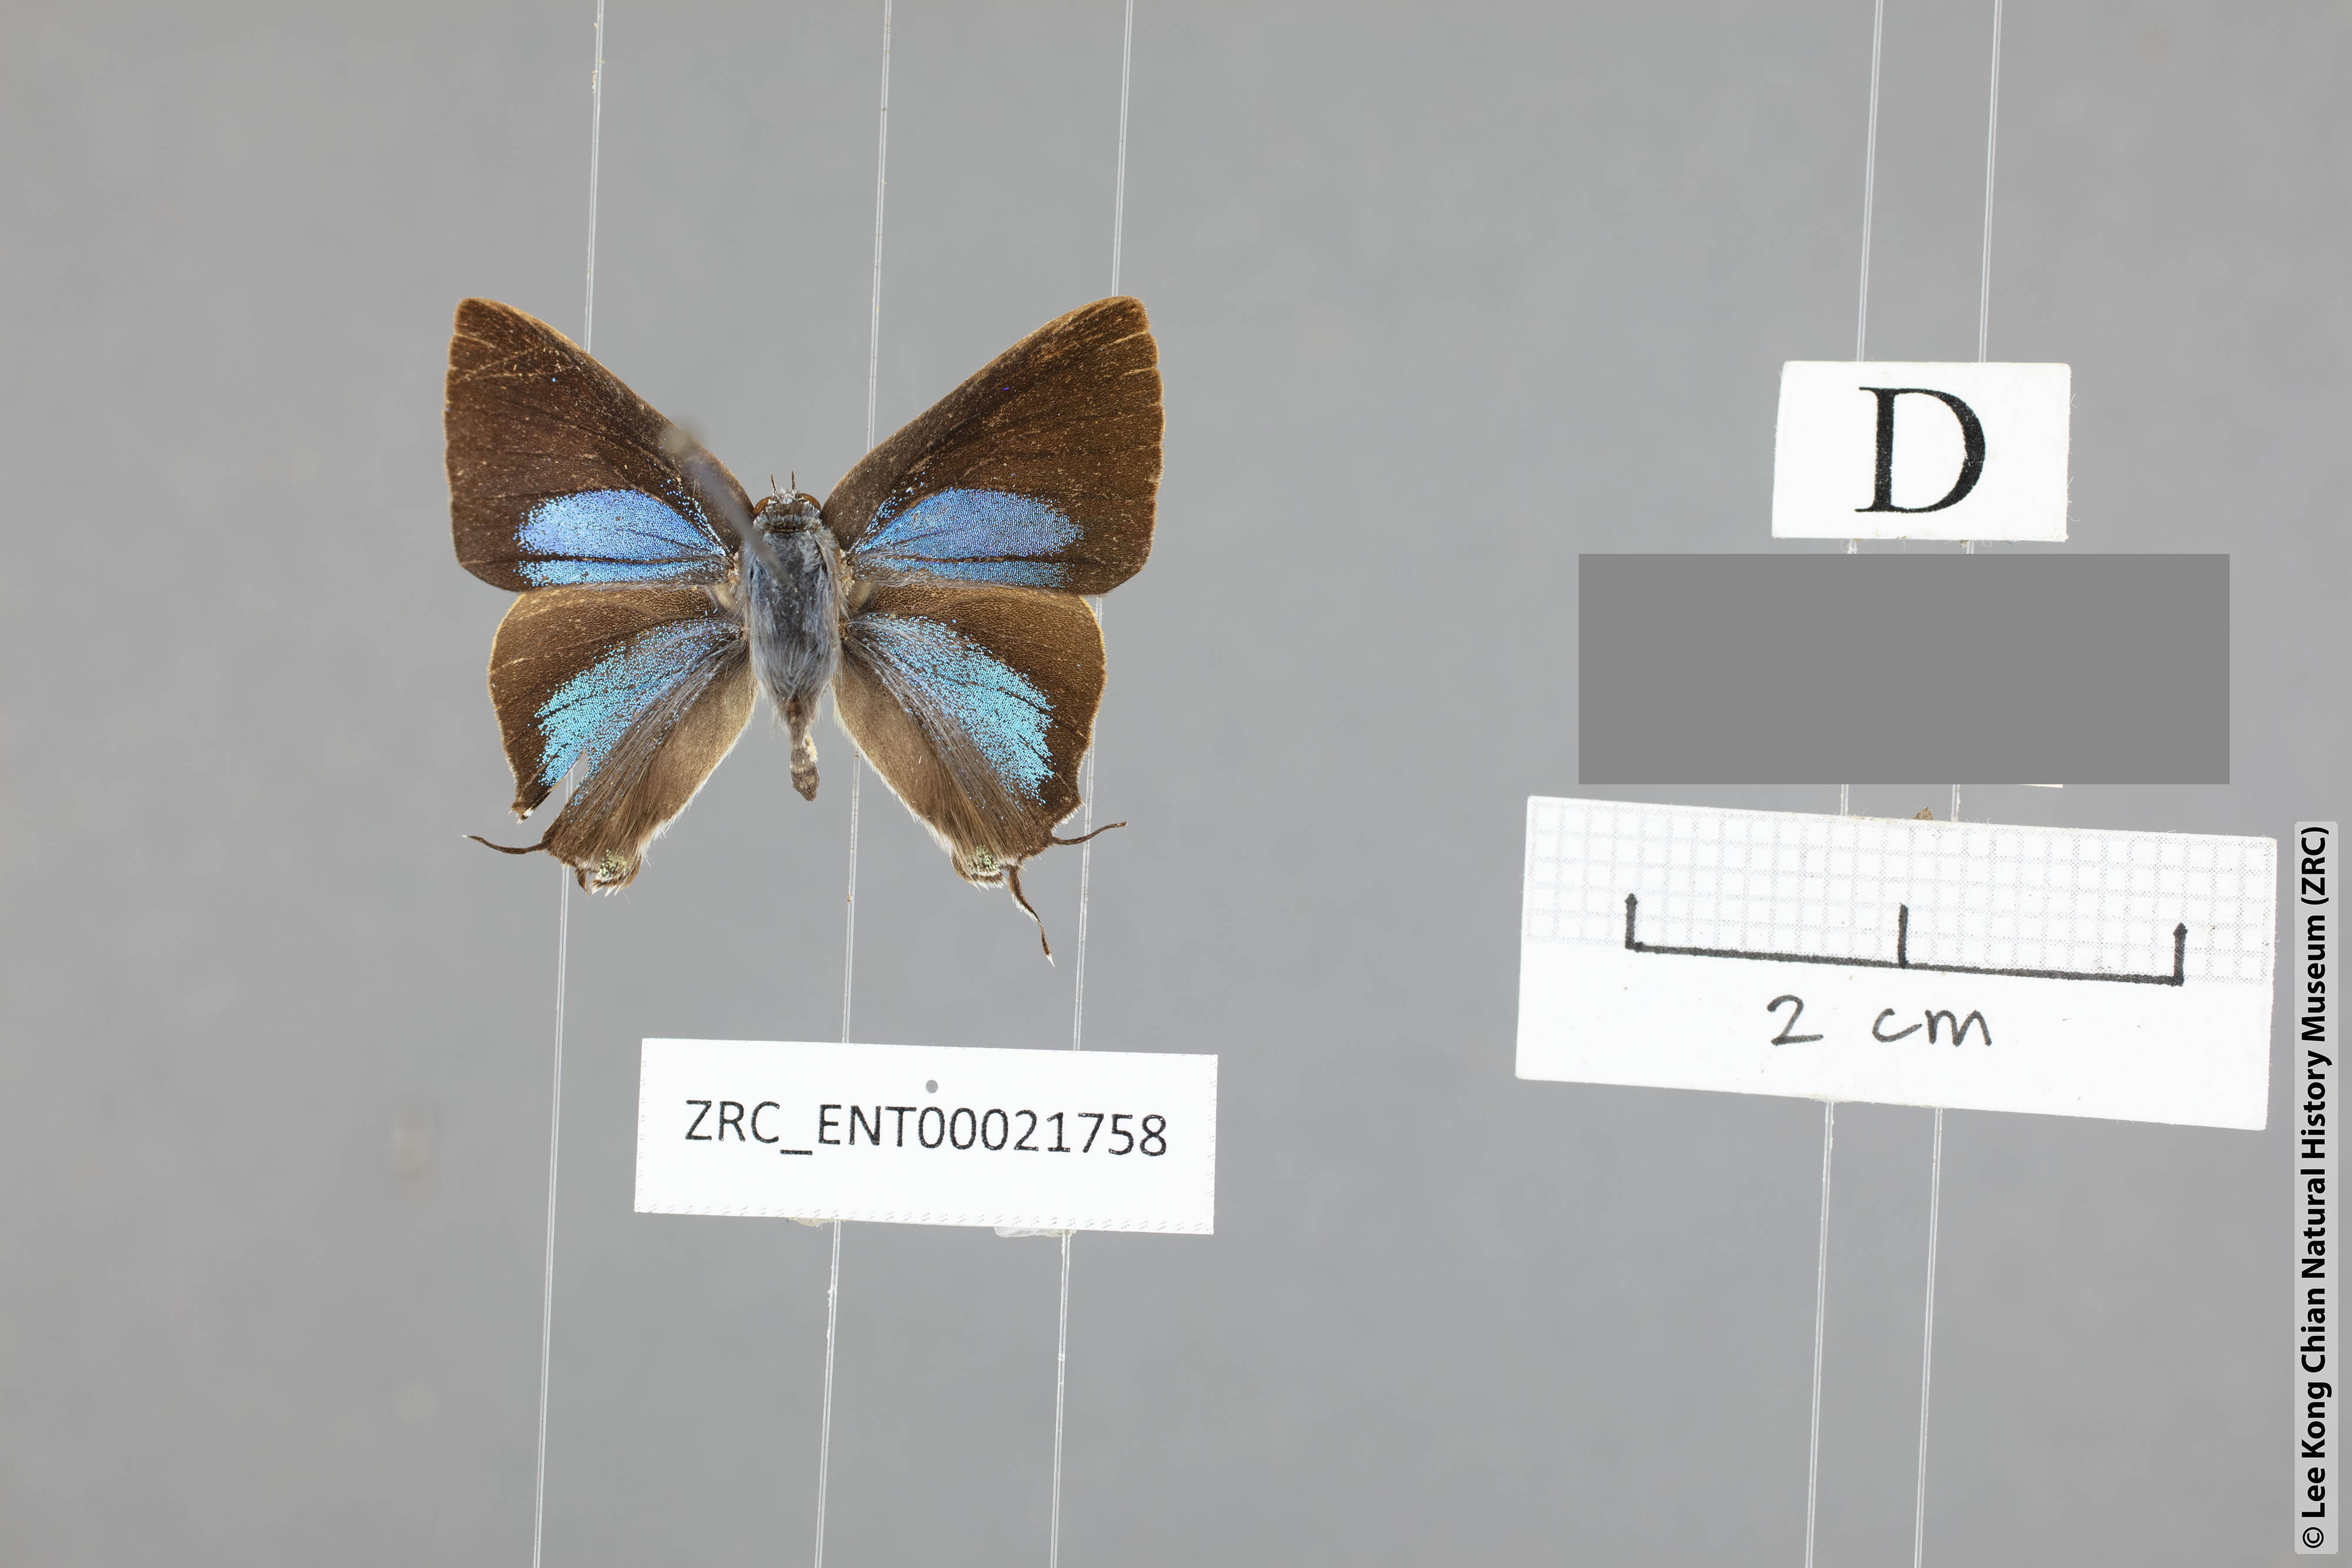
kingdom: Animalia
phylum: Arthropoda
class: Insecta
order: Lepidoptera
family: Lycaenidae
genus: Pseudomyrina
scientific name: Pseudomyrina
